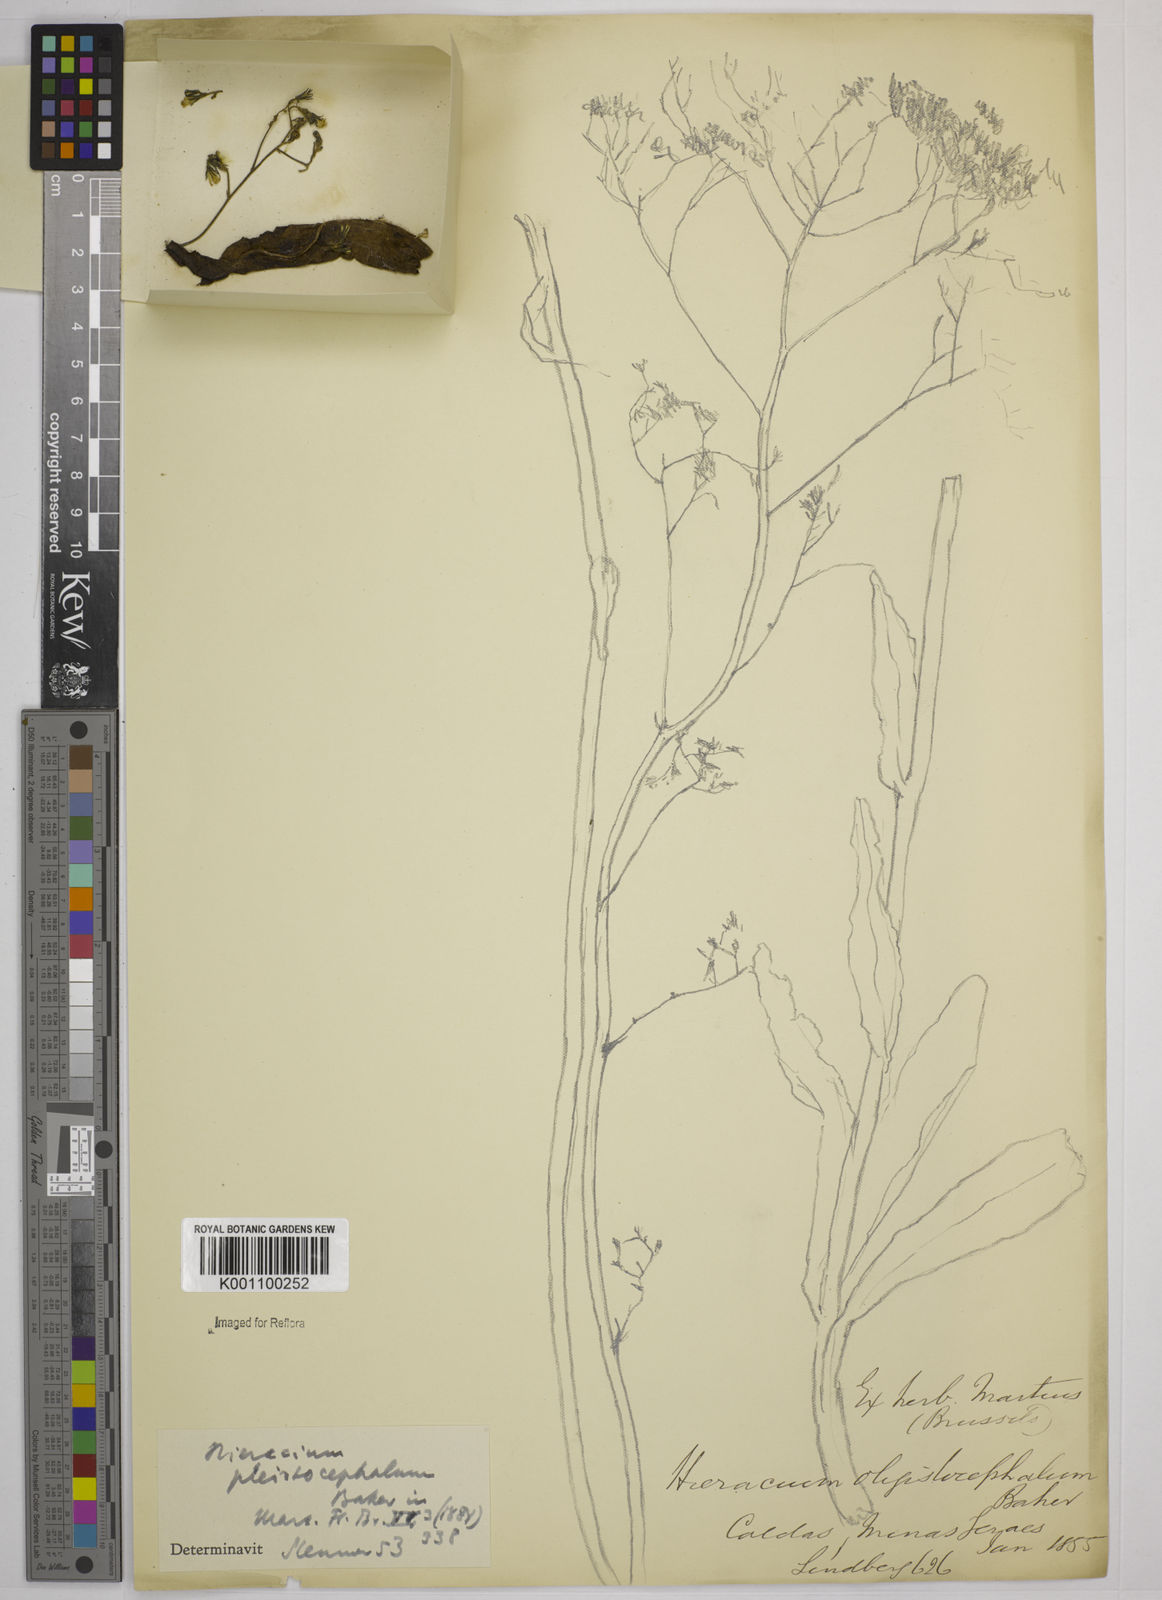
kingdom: Plantae
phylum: Tracheophyta
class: Magnoliopsida
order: Asterales
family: Asteraceae
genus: Hieracium
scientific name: Hieracium flaccidum
